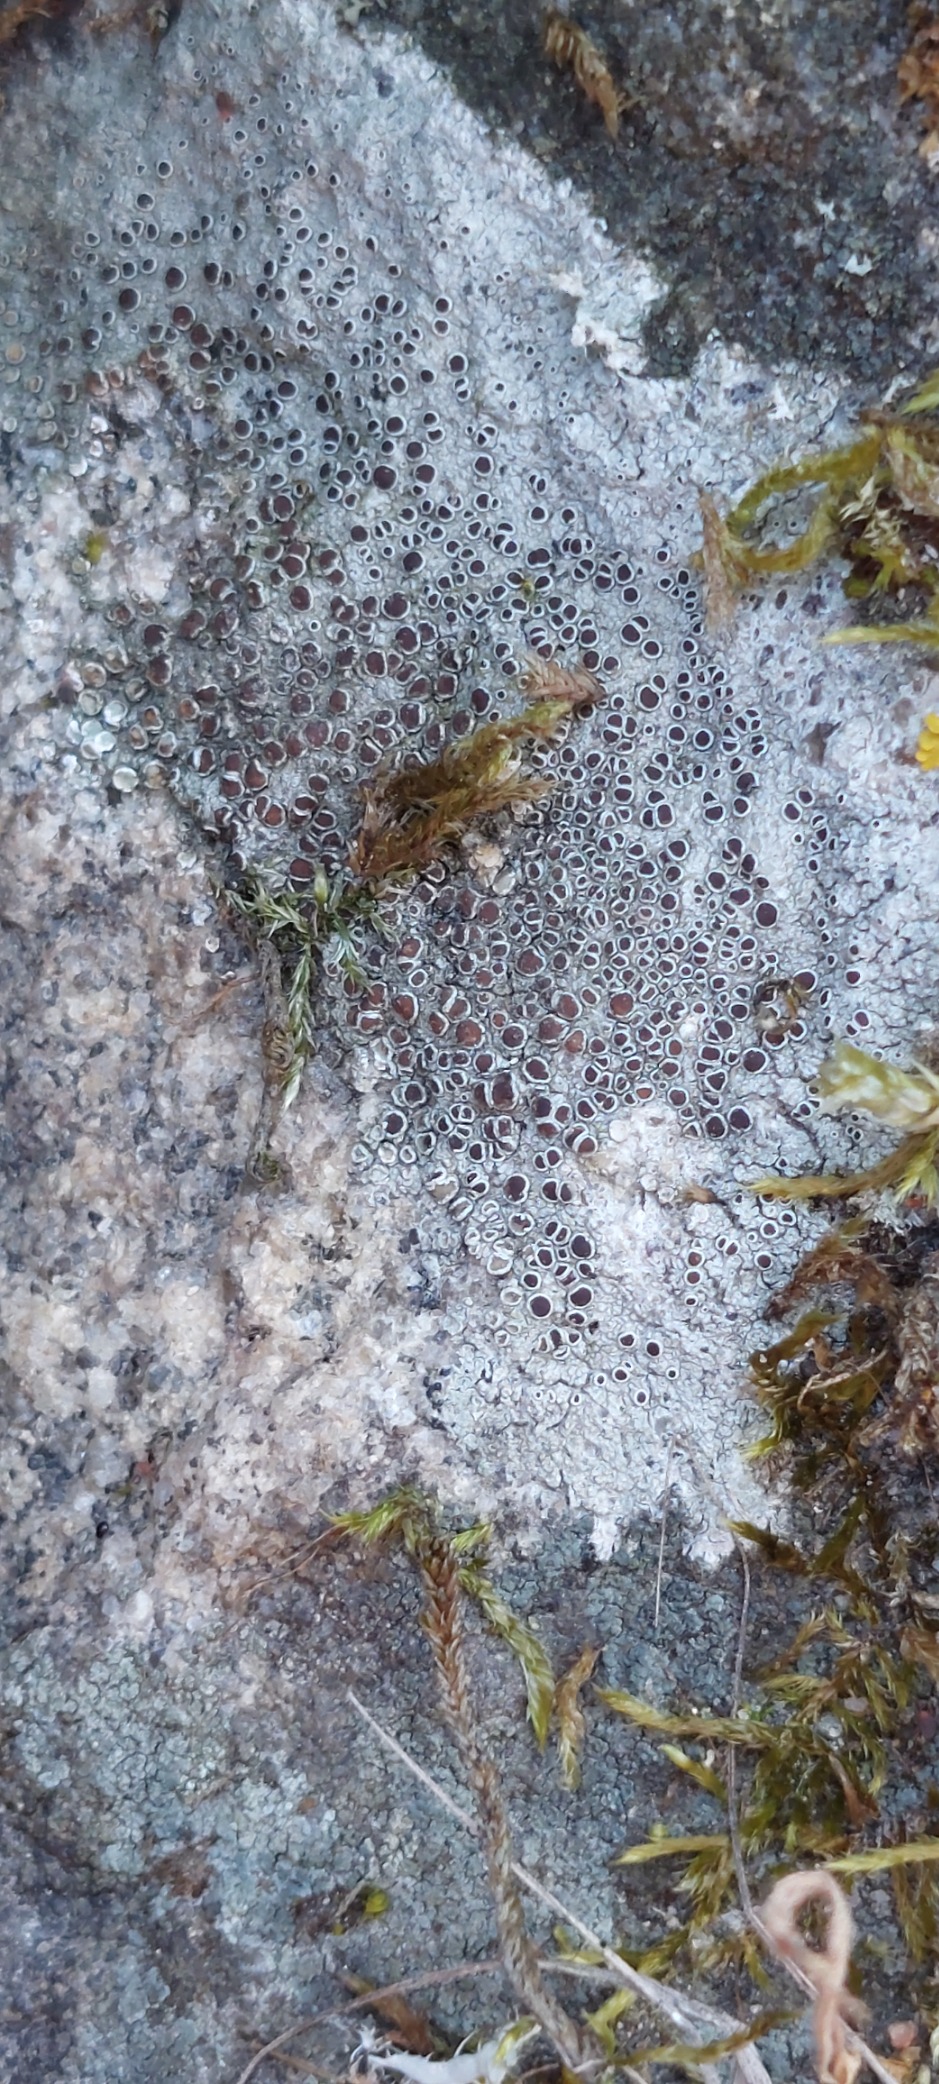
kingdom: Fungi
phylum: Ascomycota
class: Lecanoromycetes
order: Lecanorales
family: Lecanoraceae
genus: Lecanora
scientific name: Lecanora
